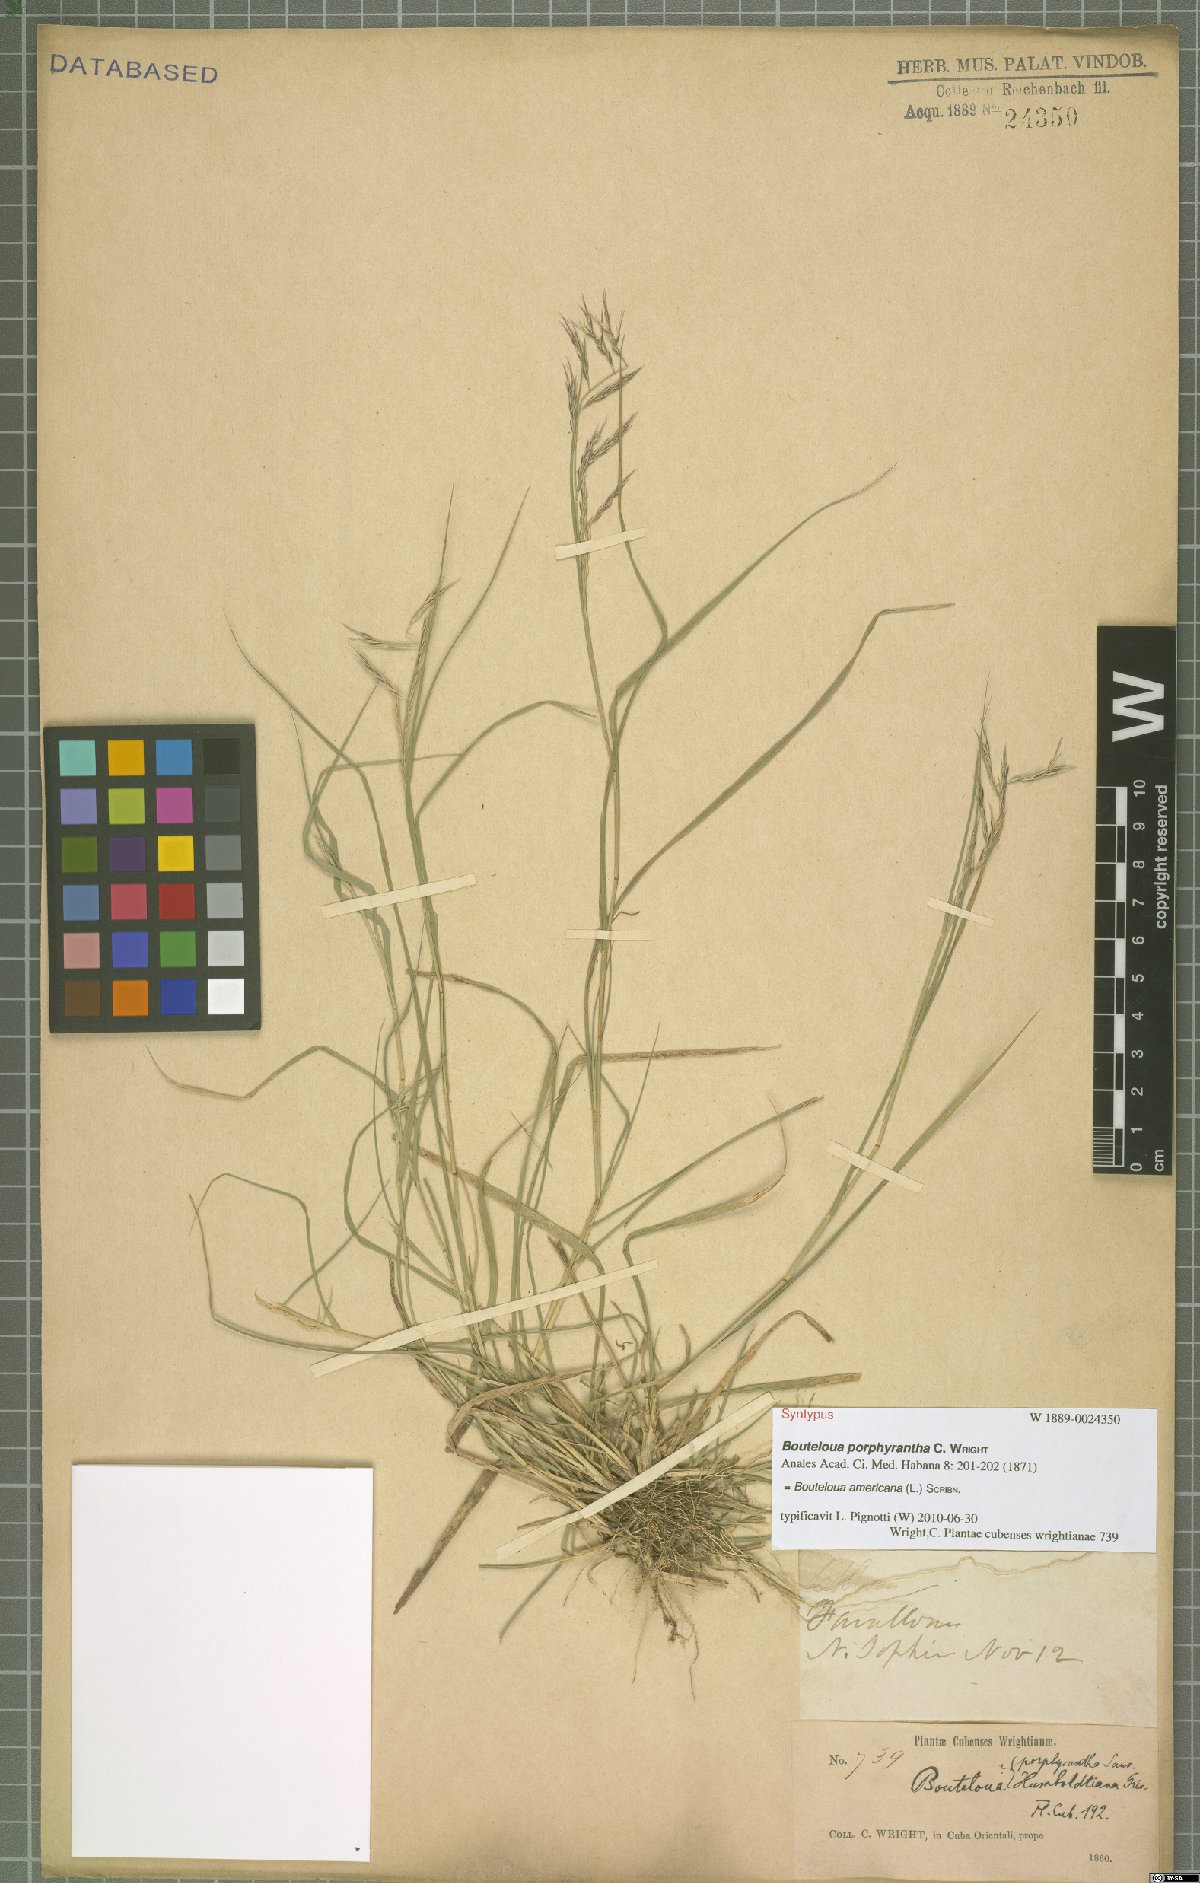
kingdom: Plantae
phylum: Tracheophyta
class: Liliopsida
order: Poales
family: Poaceae
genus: Bouteloua
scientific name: Bouteloua americana
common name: Mule grass
